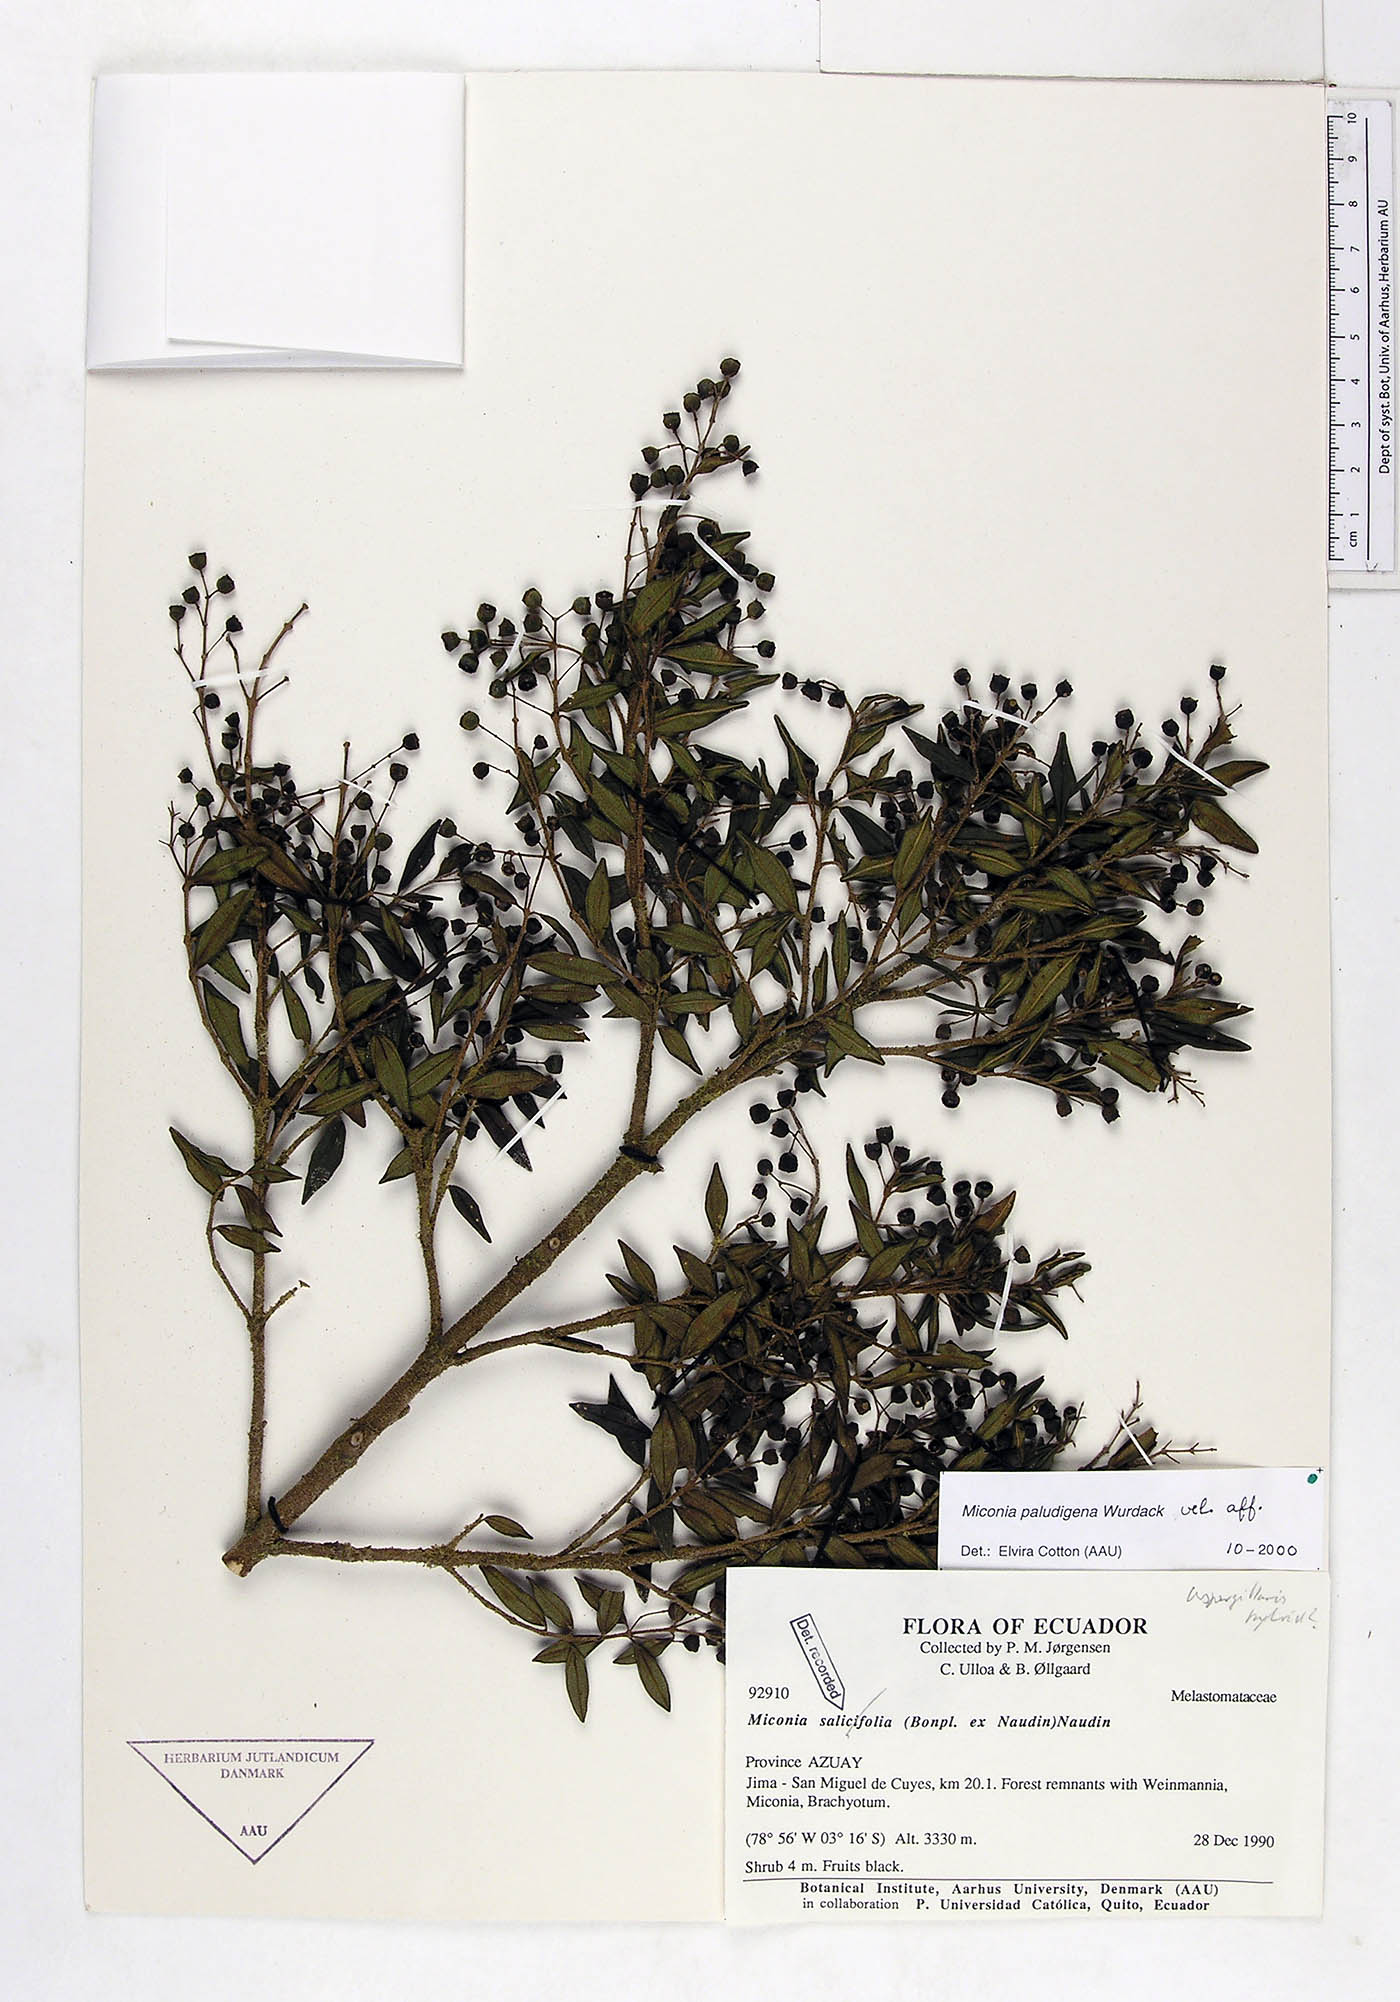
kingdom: Plantae
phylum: Tracheophyta
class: Magnoliopsida
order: Myrtales
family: Melastomataceae
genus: Miconia
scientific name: Miconia paludigena
